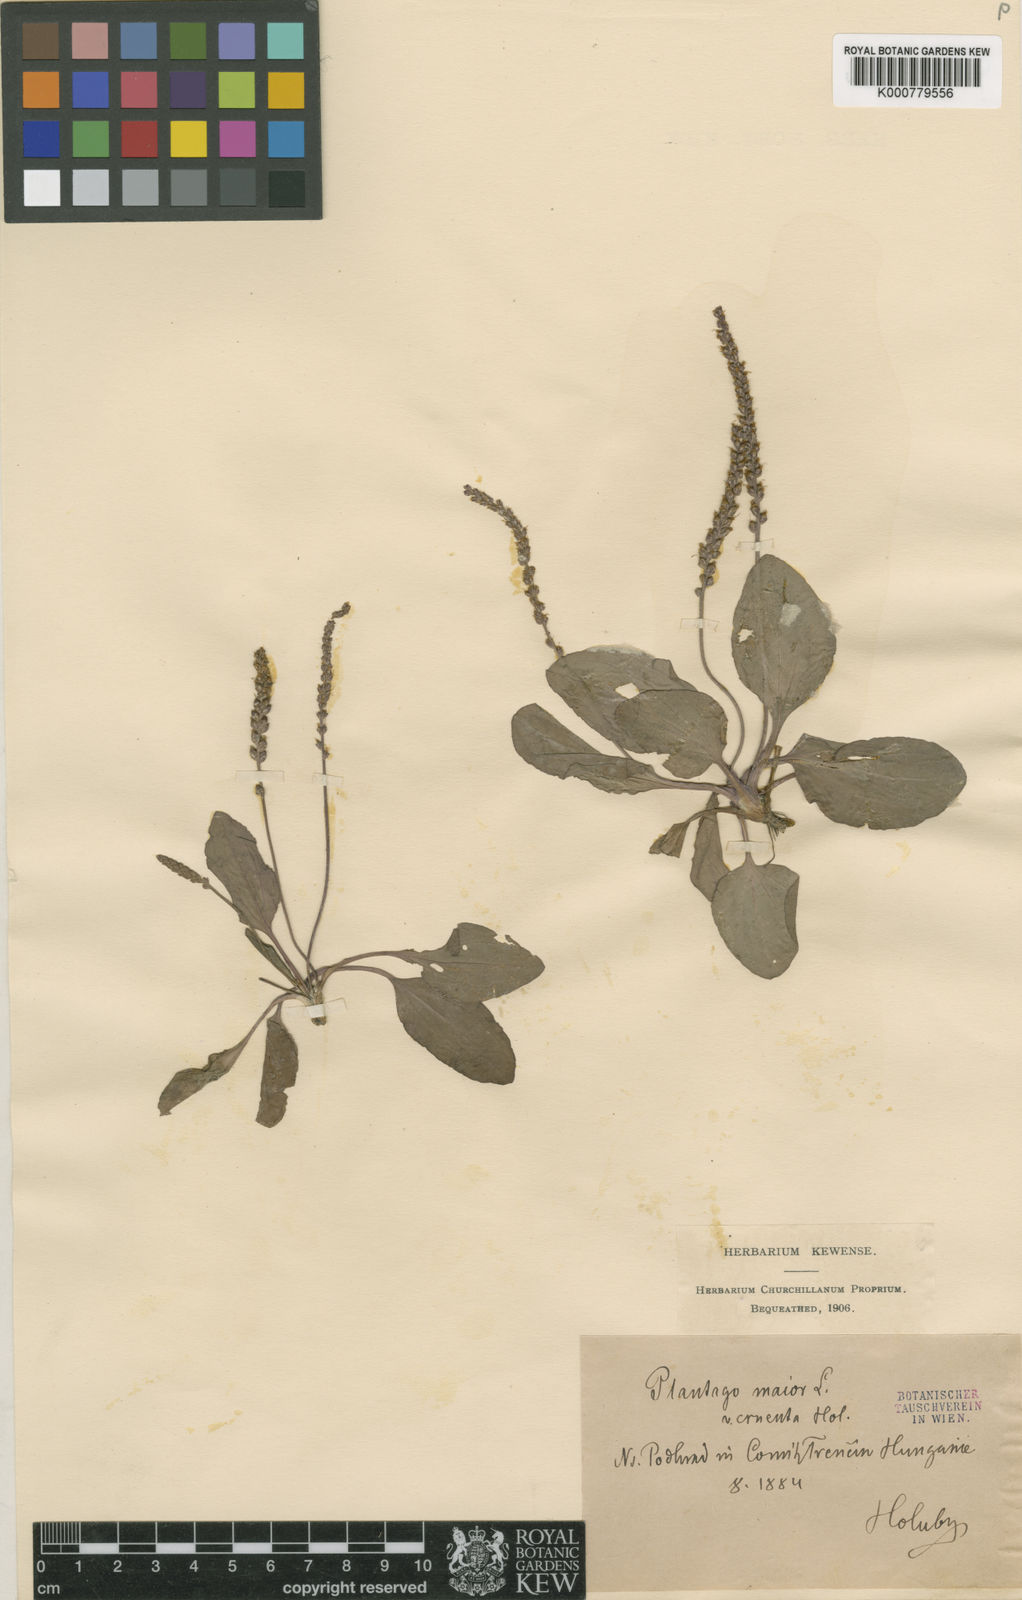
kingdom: Plantae
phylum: Tracheophyta
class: Magnoliopsida
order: Lamiales
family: Plantaginaceae
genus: Plantago
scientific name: Plantago major
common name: Common plantain
